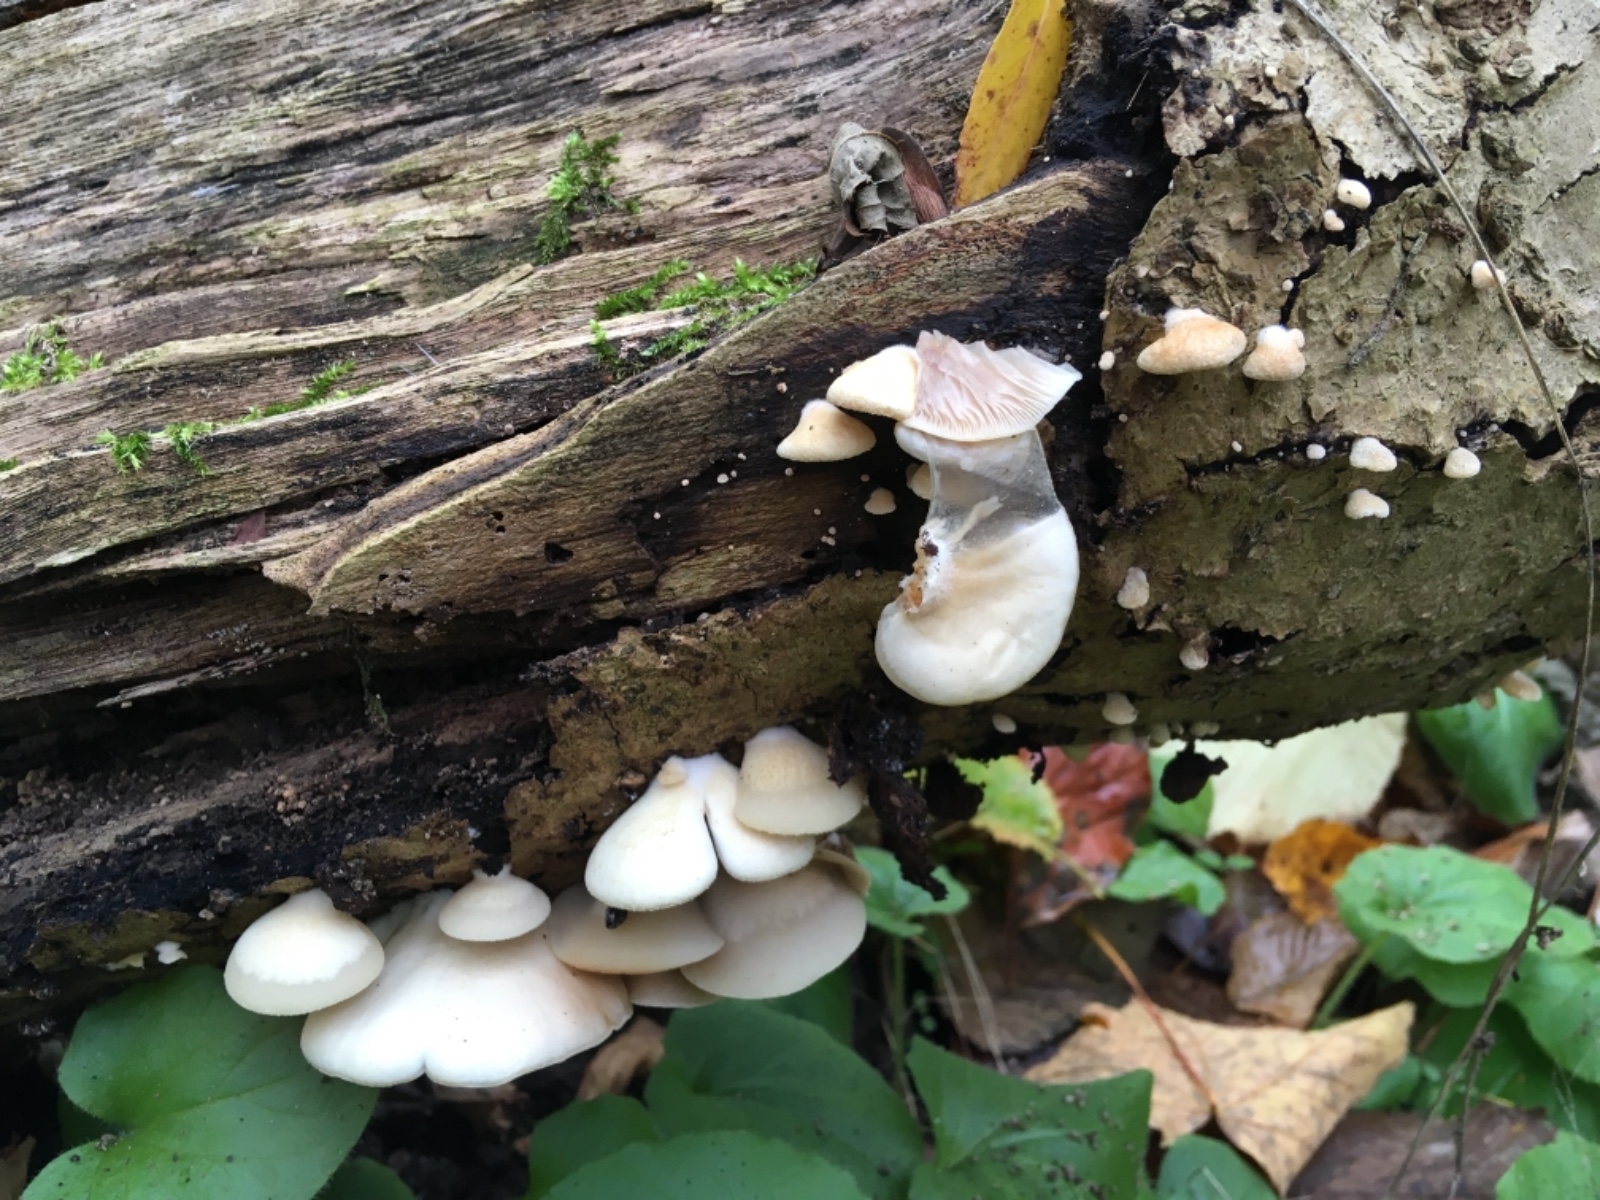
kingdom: Fungi
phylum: Basidiomycota
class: Agaricomycetes
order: Agaricales
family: Crepidotaceae
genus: Crepidotus
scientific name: Crepidotus mollis
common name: blød muslingesvamp
